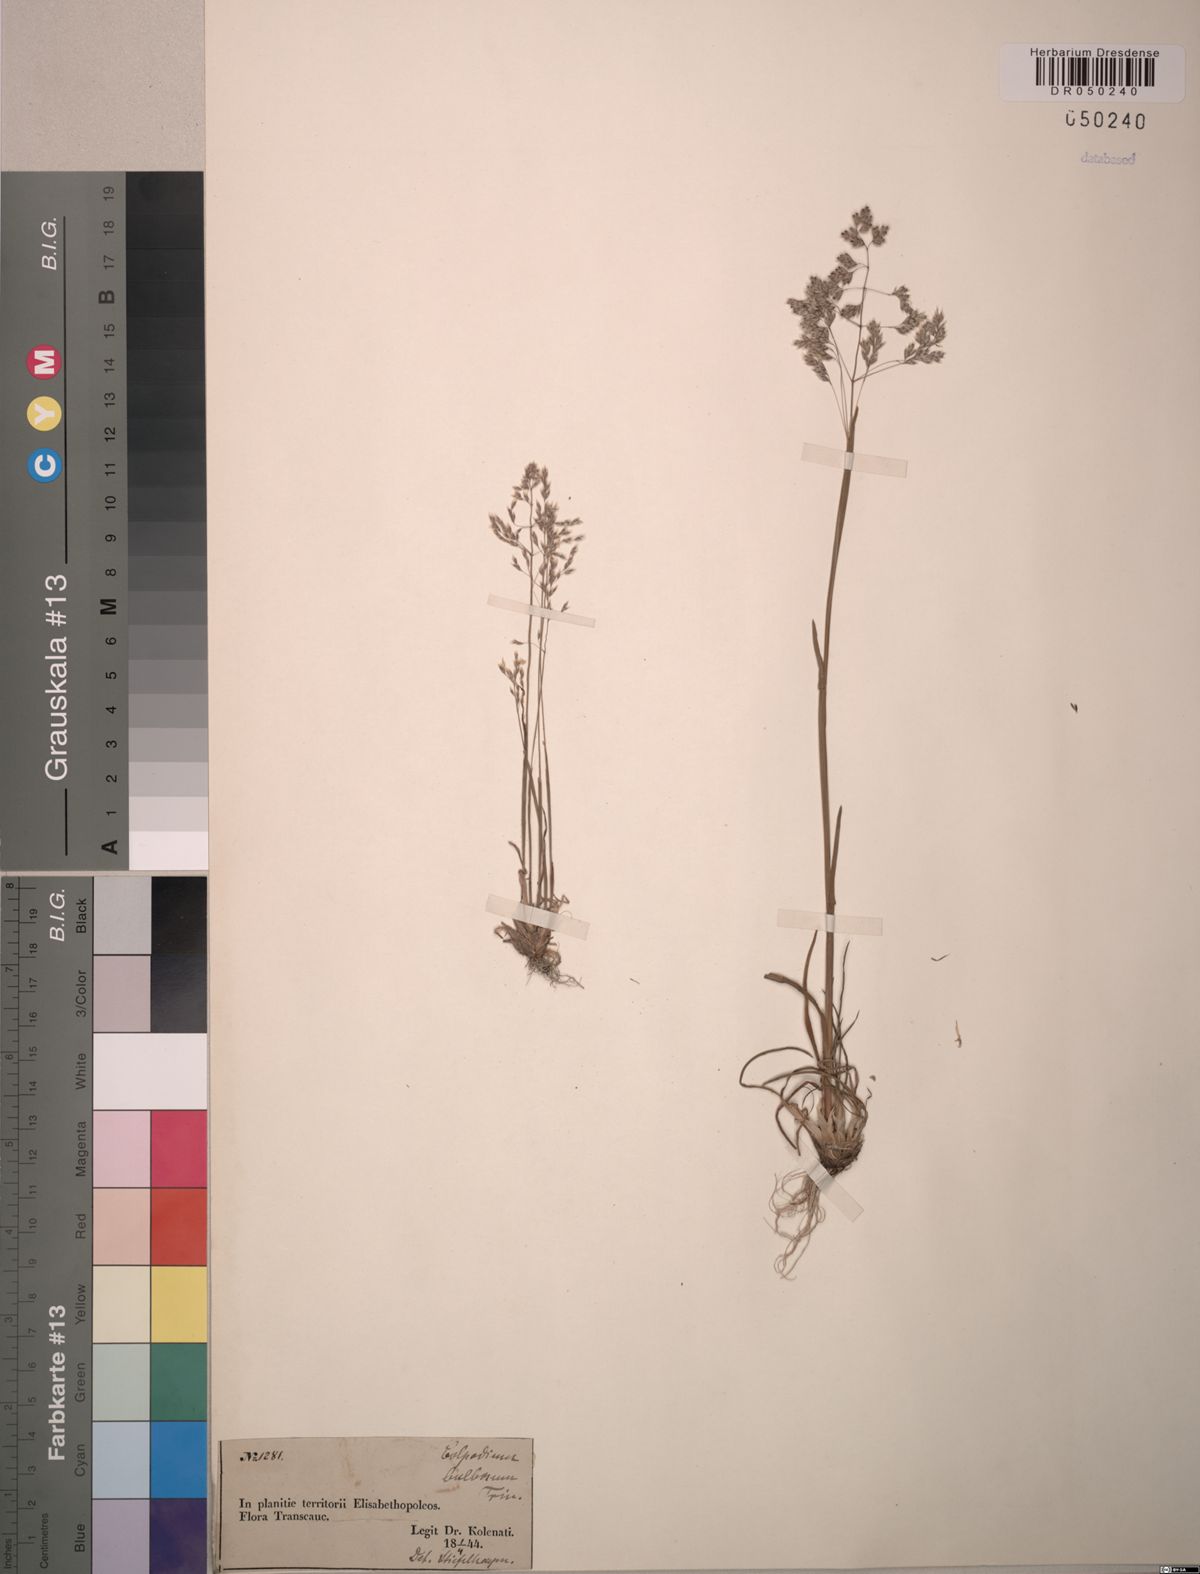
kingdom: Plantae
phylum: Tracheophyta
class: Liliopsida
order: Poales
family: Poaceae
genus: Catabrosella
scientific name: Catabrosella humilis
